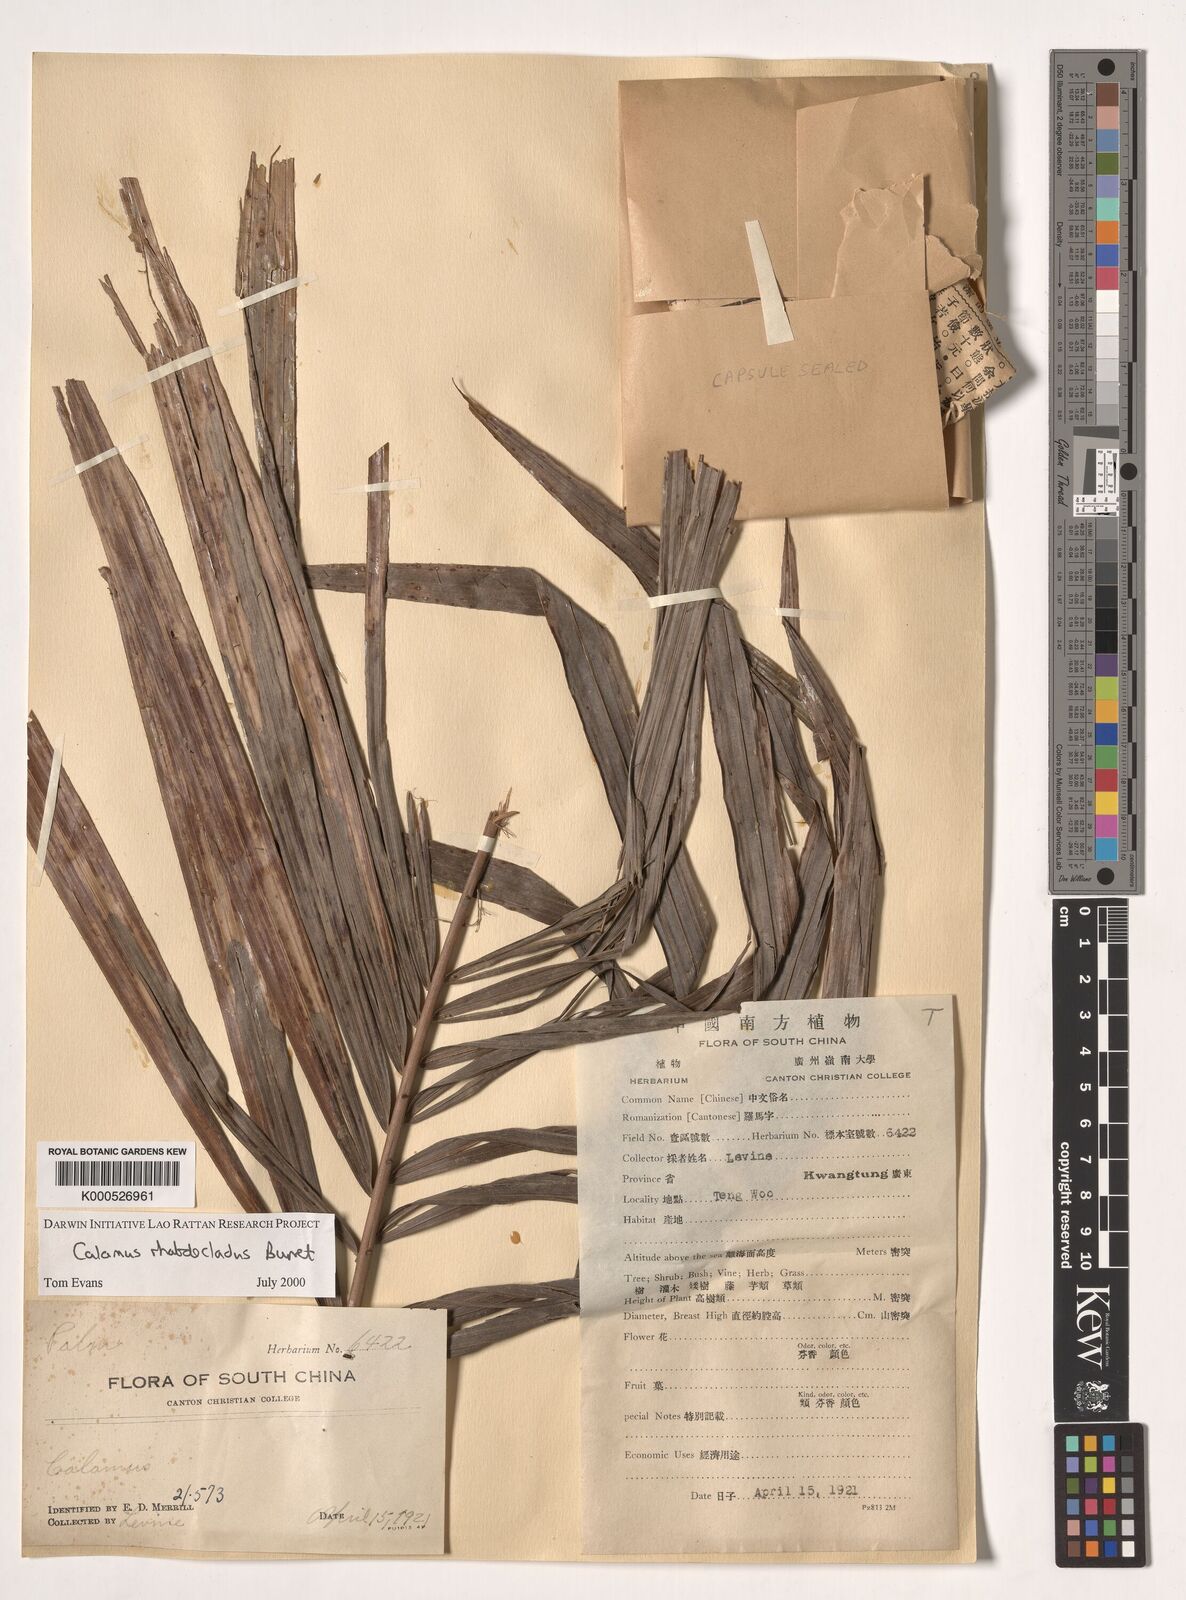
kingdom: Plantae
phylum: Tracheophyta
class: Liliopsida
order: Arecales
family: Arecaceae
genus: Calamus
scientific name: Calamus rhabdocladus
